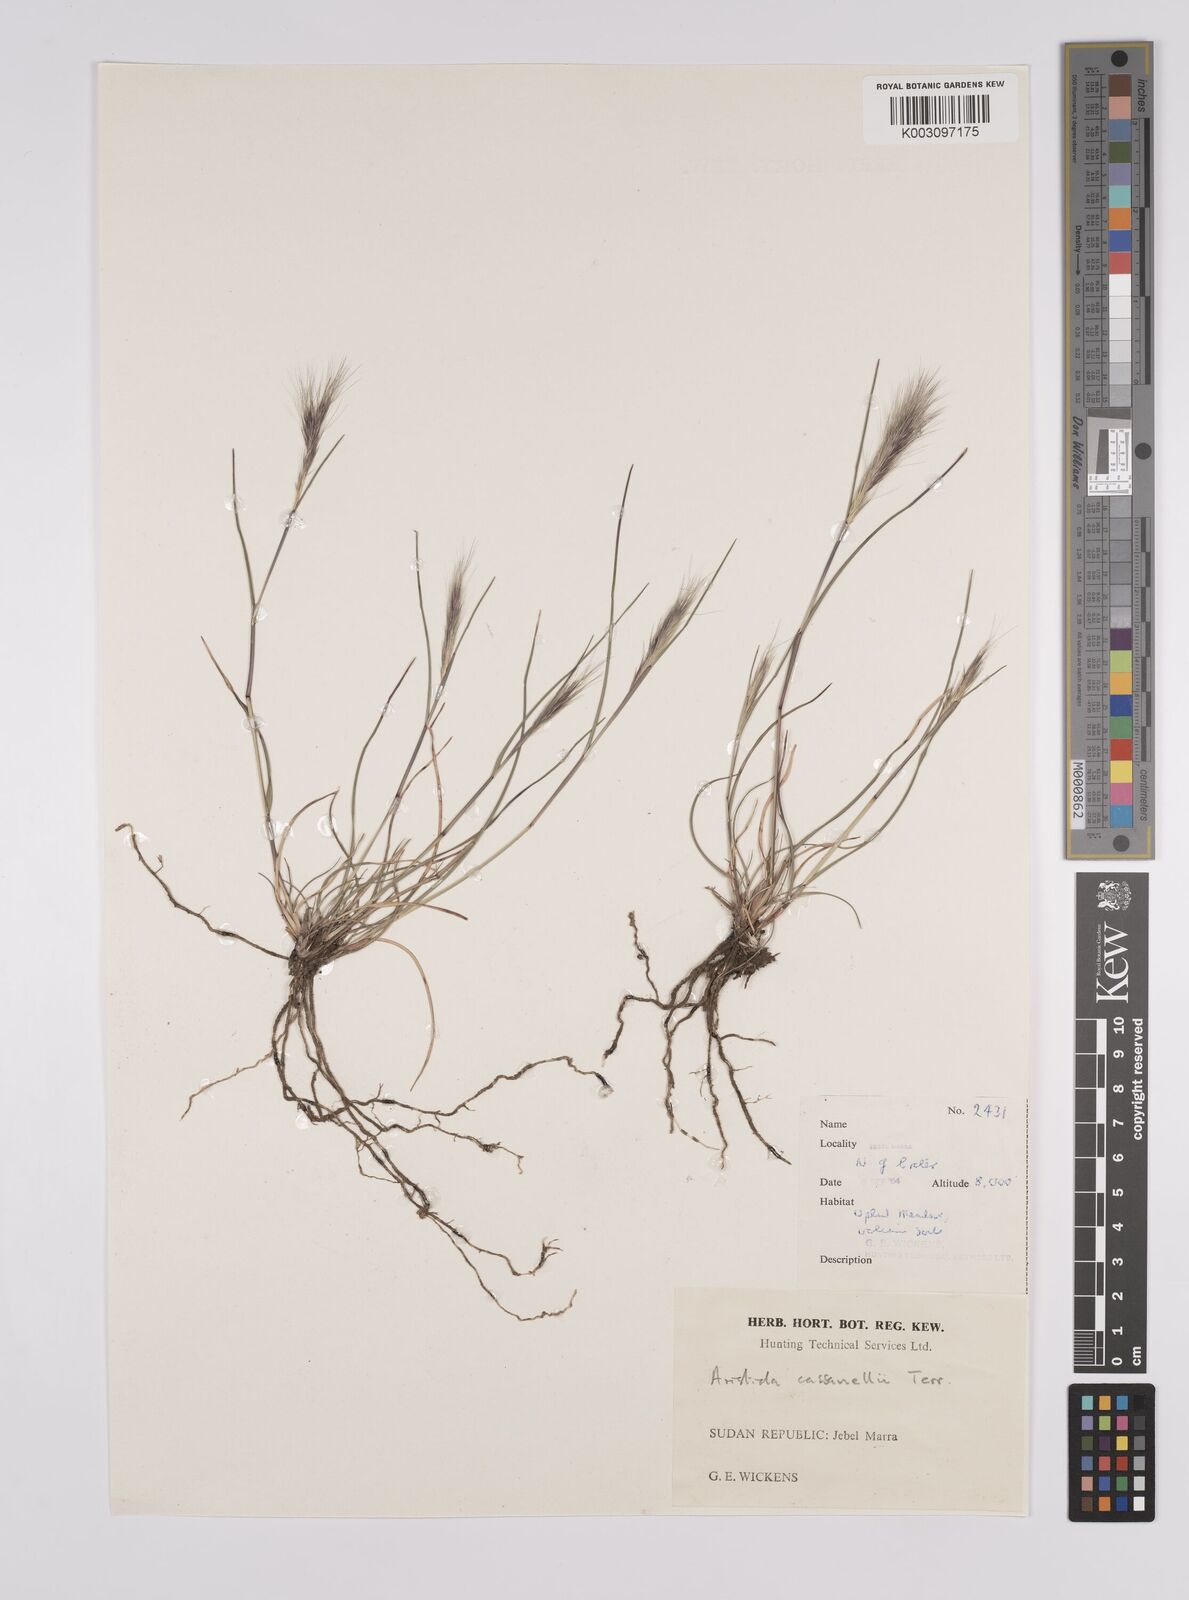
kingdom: Plantae
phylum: Tracheophyta
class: Liliopsida
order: Poales
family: Poaceae
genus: Aristida
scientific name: Aristida congesta
